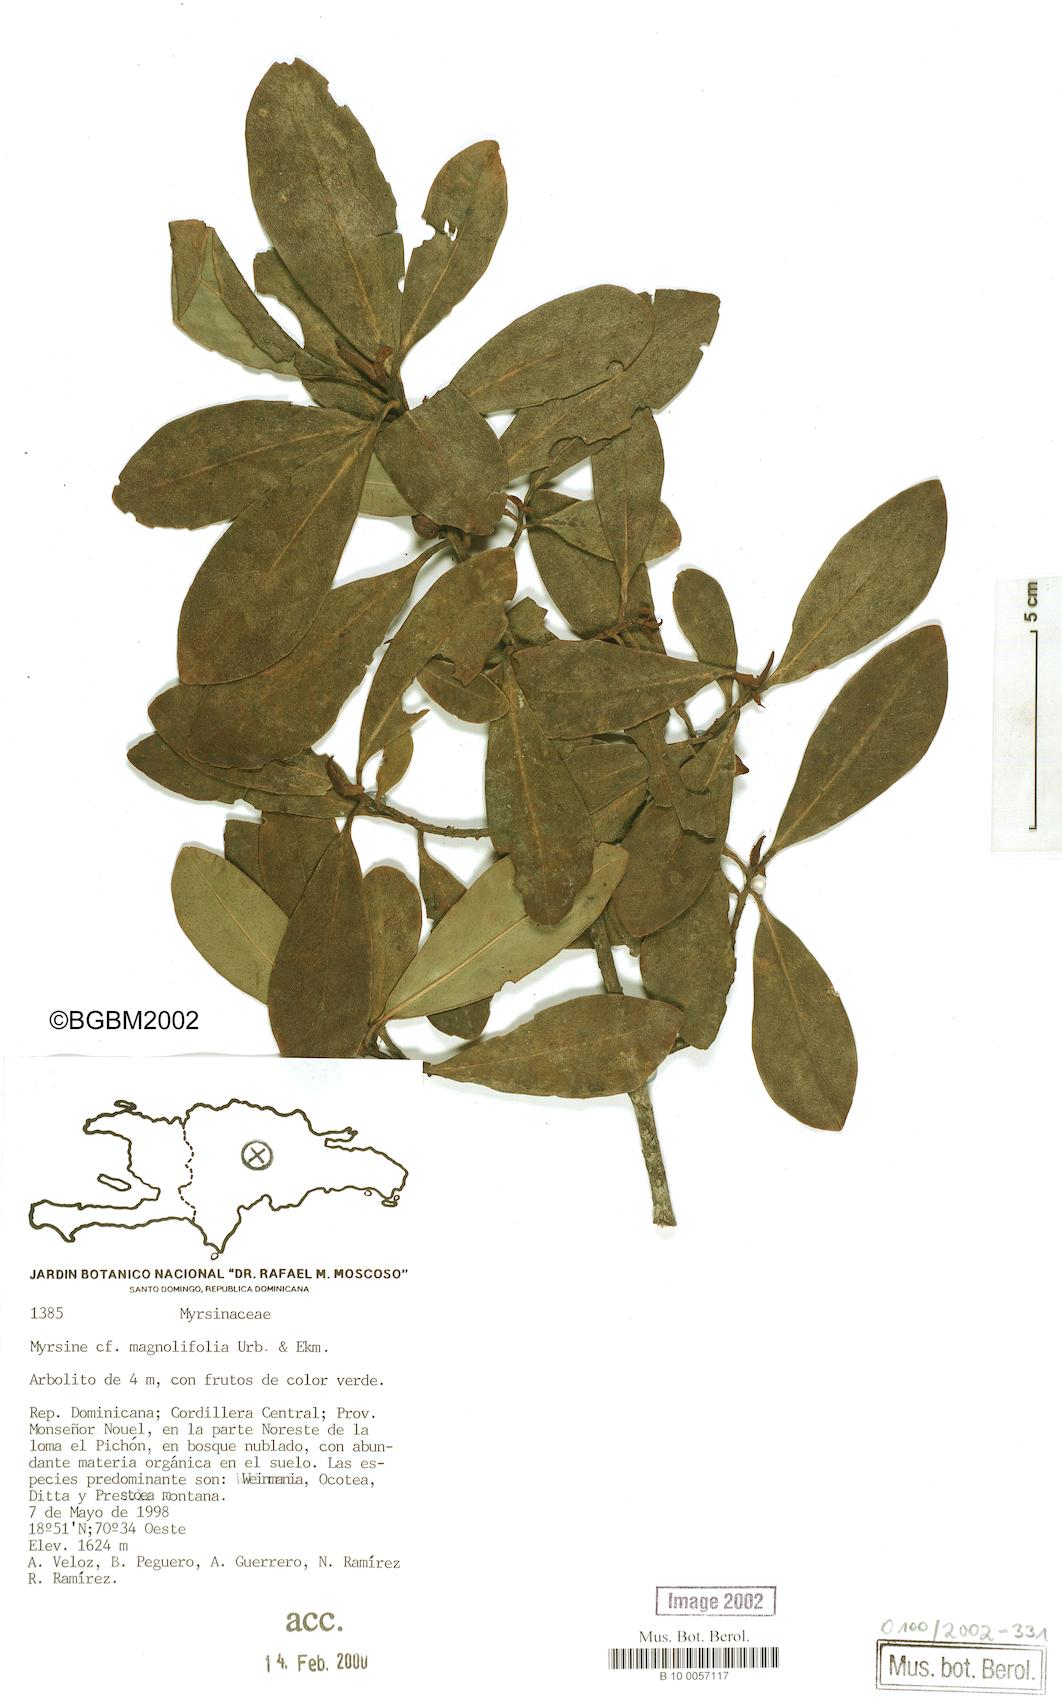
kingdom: Plantae
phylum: Tracheophyta
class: Magnoliopsida
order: Ericales
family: Primulaceae
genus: Myrsine
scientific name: Myrsine magnoliifolia
